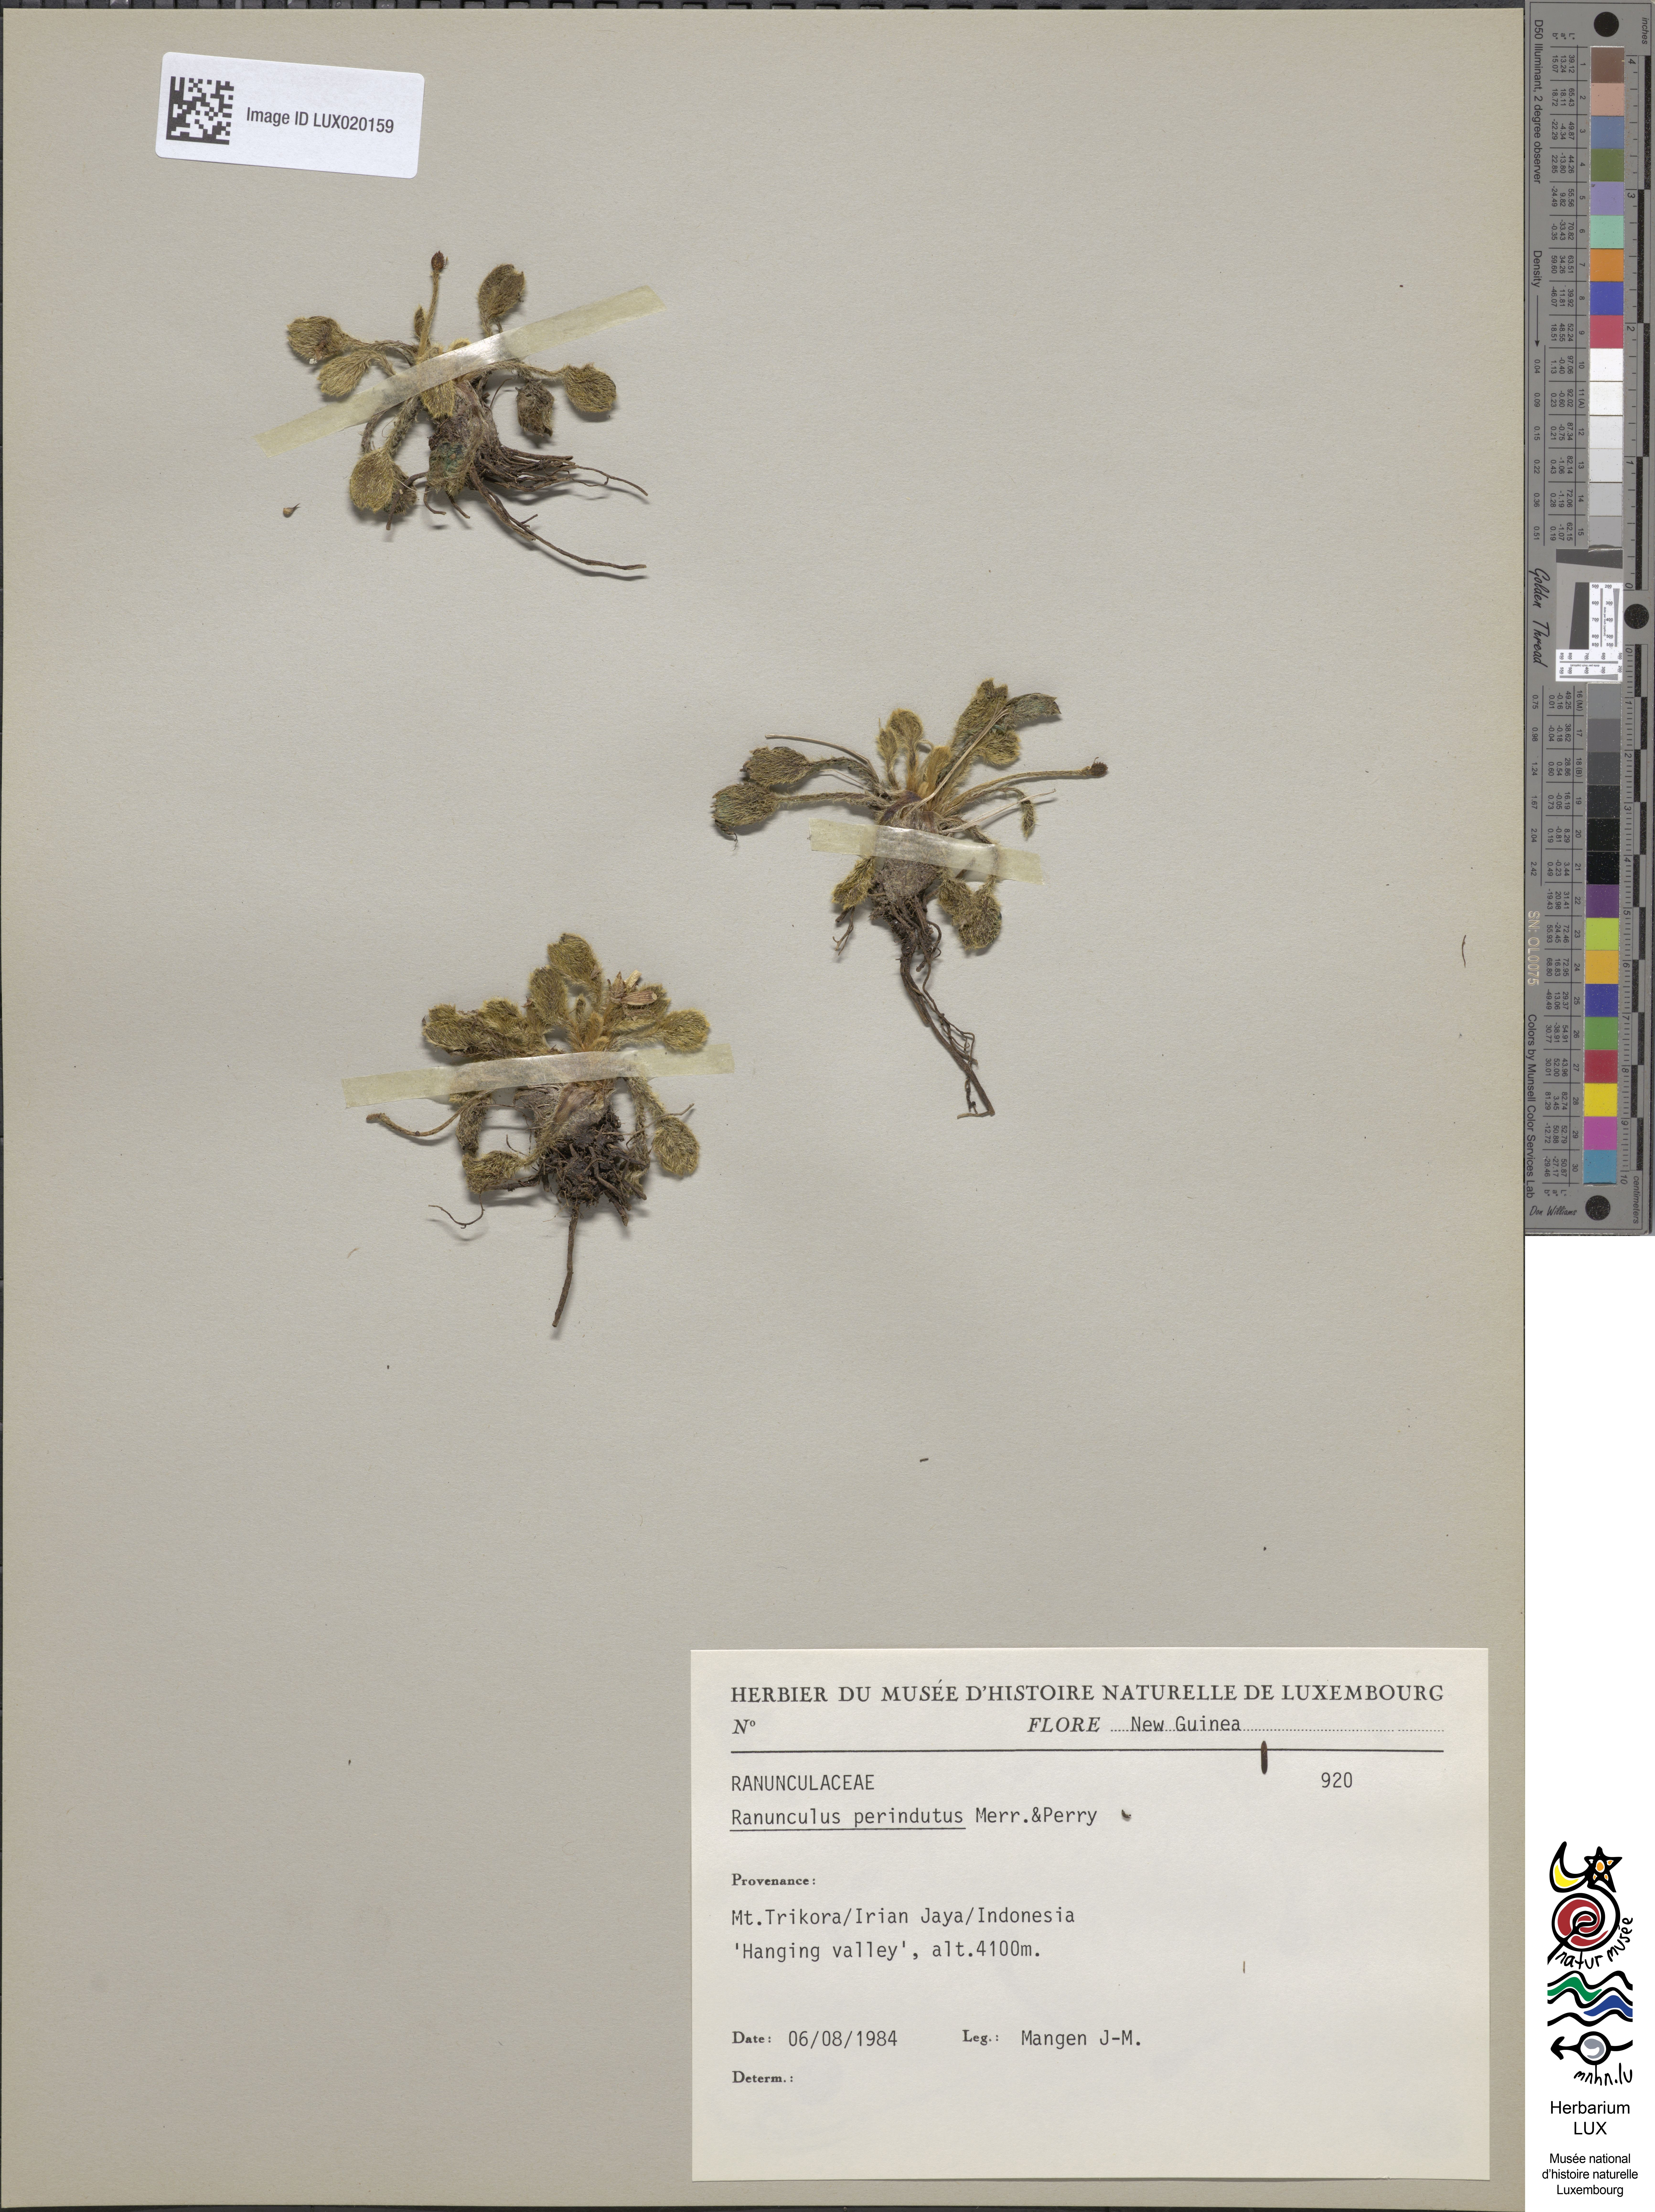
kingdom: Plantae
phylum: Tracheophyta
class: Magnoliopsida
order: Ranunculales
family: Ranunculaceae
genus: Ranunculus
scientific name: Ranunculus perindutus
